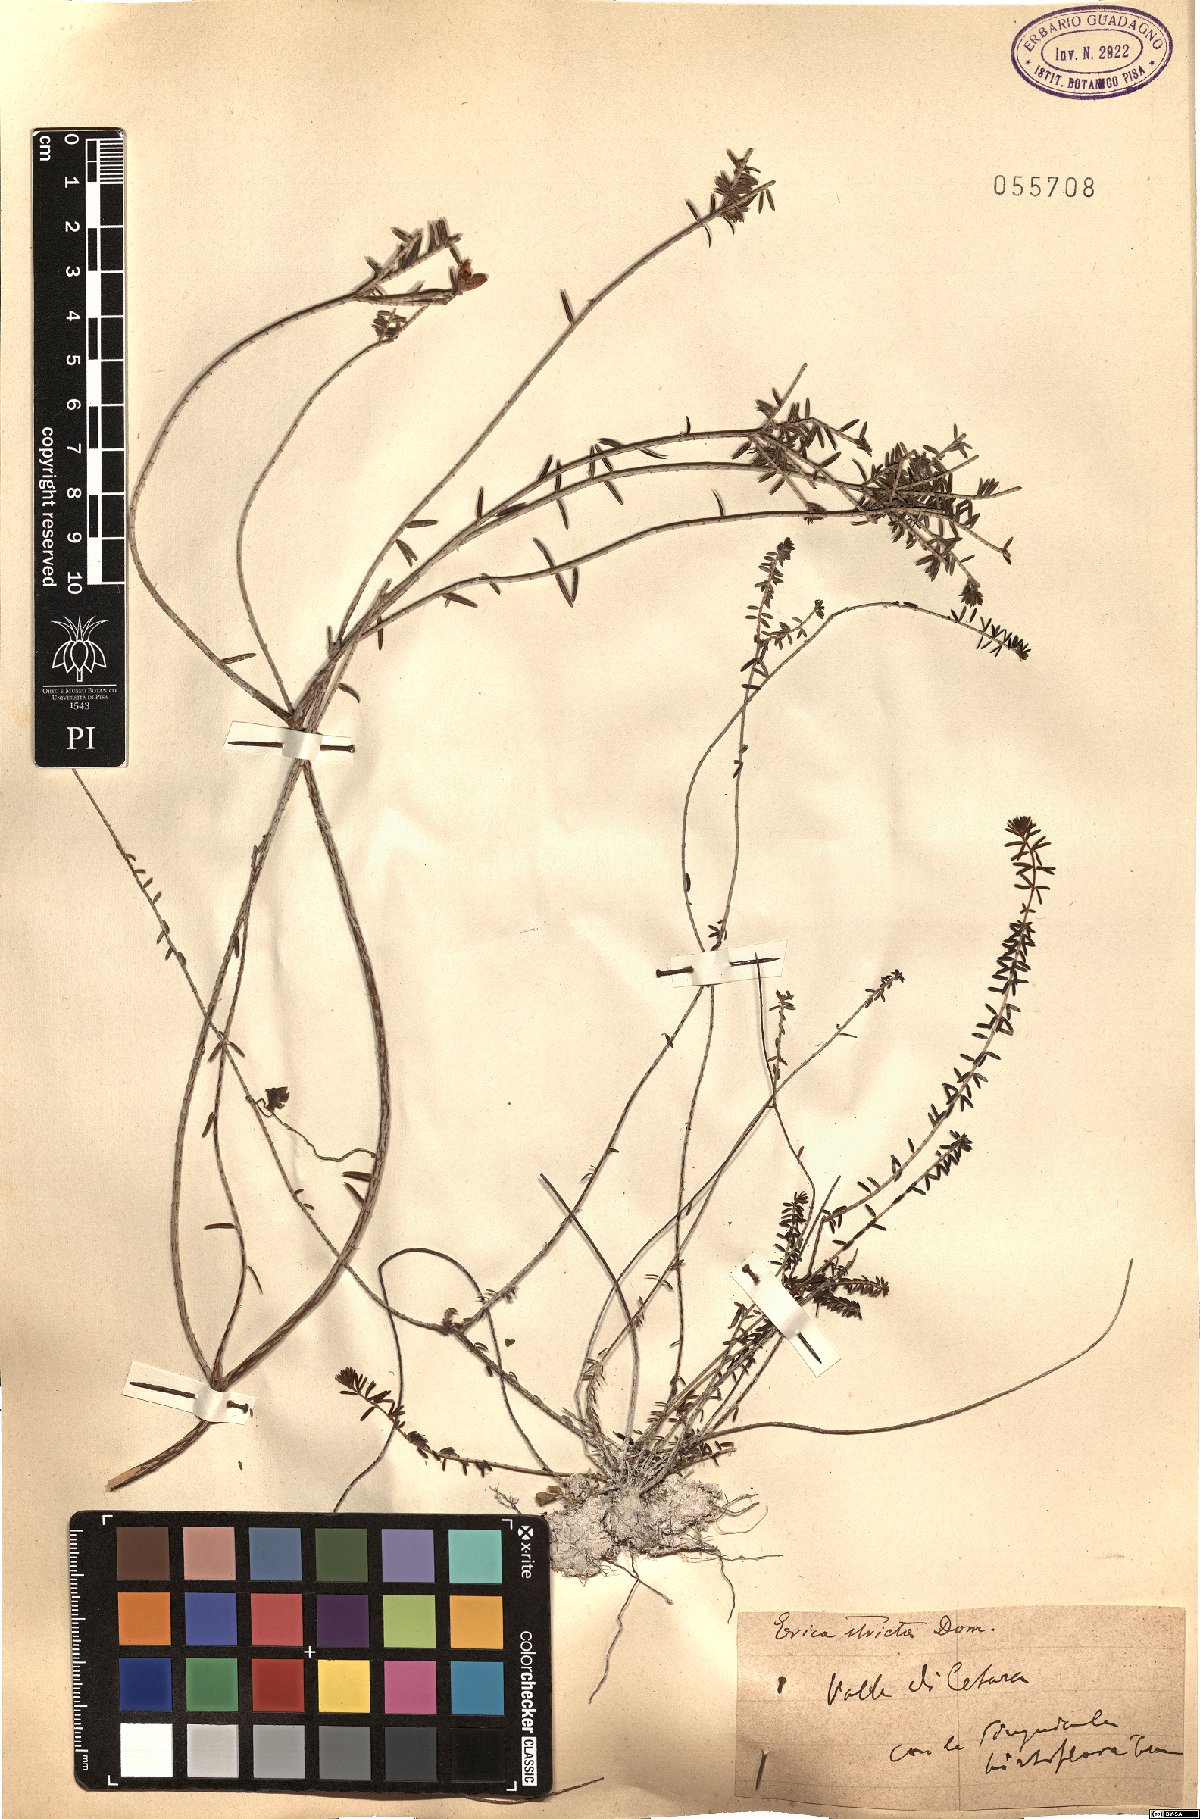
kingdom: Plantae
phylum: Tracheophyta
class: Magnoliopsida
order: Ericales
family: Ericaceae
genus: Erica
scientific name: Erica terminalis
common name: Corsican heath
